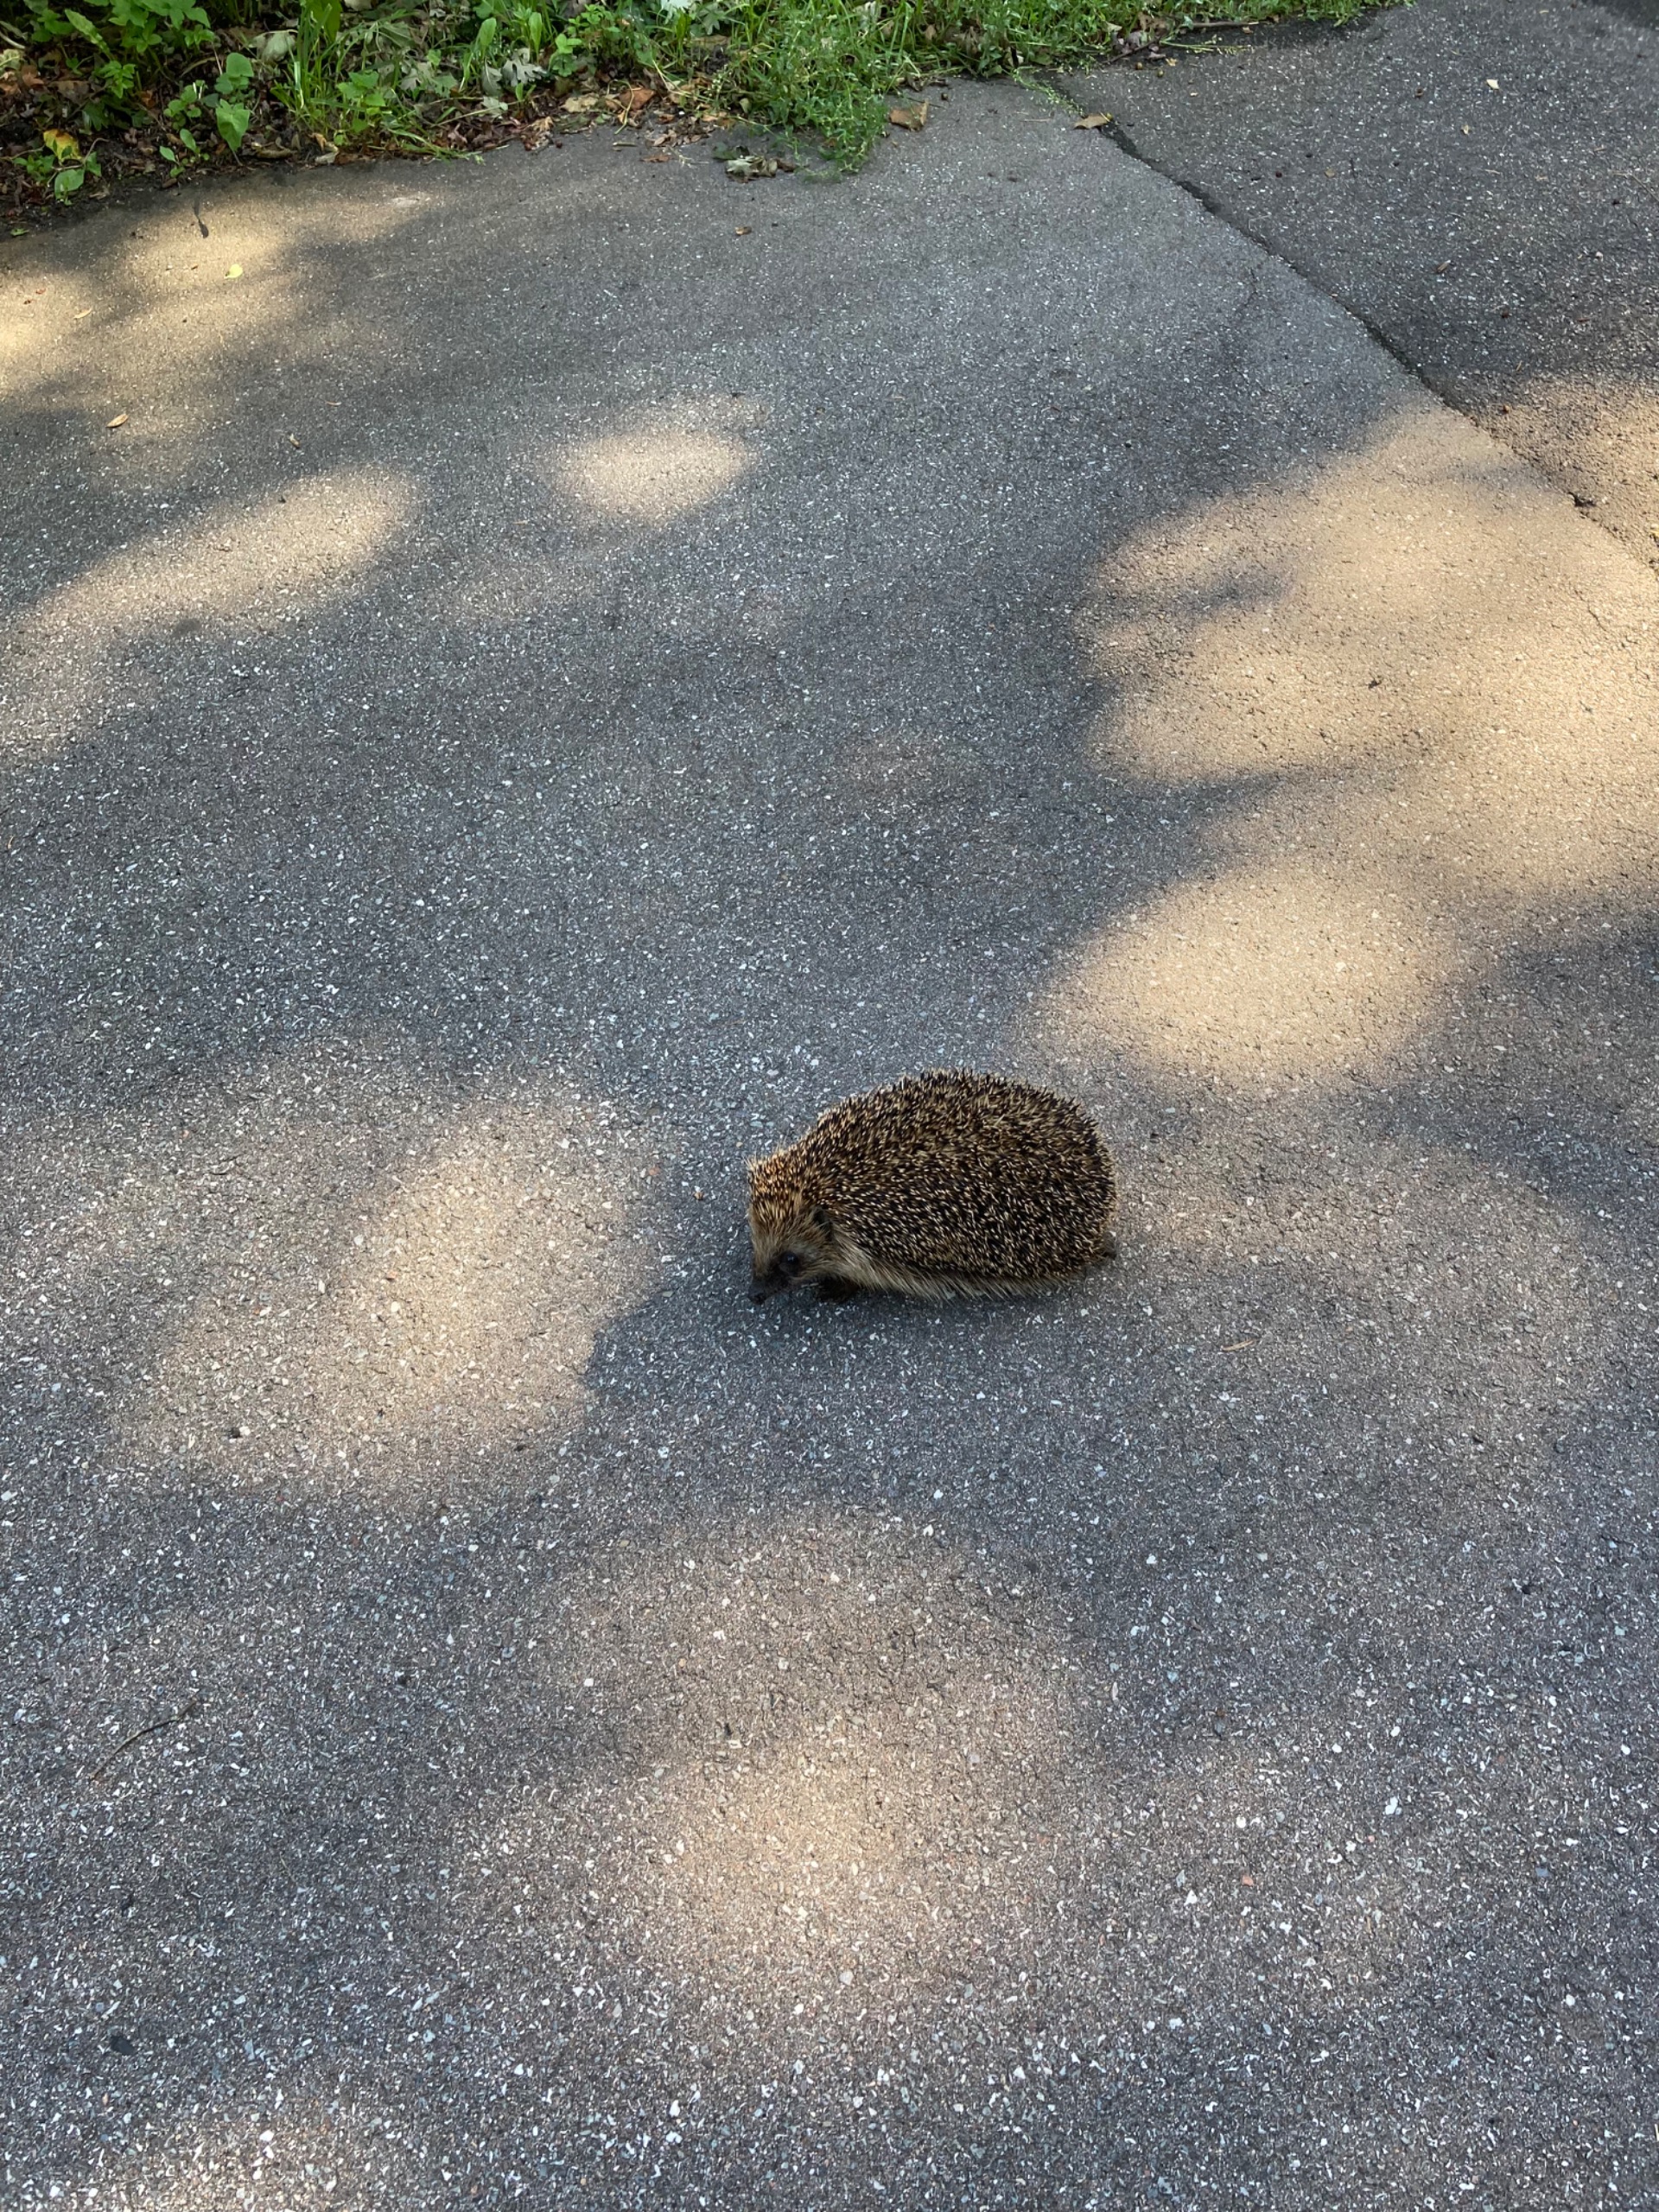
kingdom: Animalia
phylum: Chordata
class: Mammalia
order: Erinaceomorpha
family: Erinaceidae
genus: Erinaceus
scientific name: Erinaceus europaeus
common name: Pindsvin
